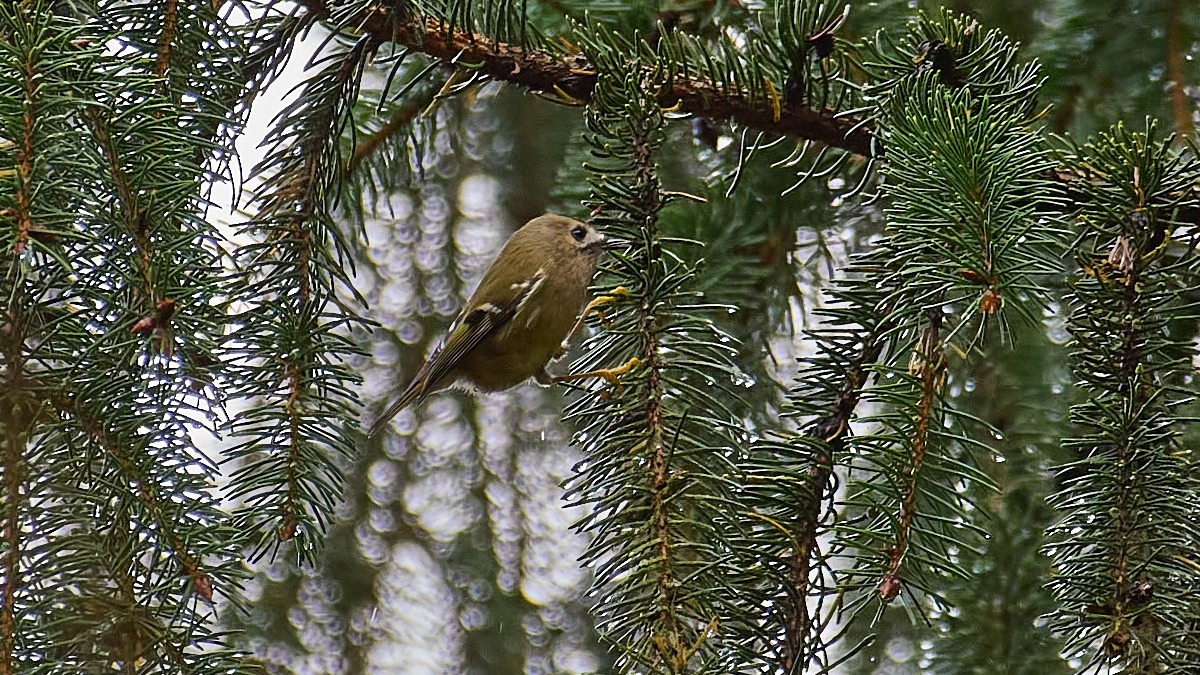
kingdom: Animalia
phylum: Chordata
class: Aves
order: Passeriformes
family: Regulidae
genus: Regulus
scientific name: Regulus regulus
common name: Fuglekonge
